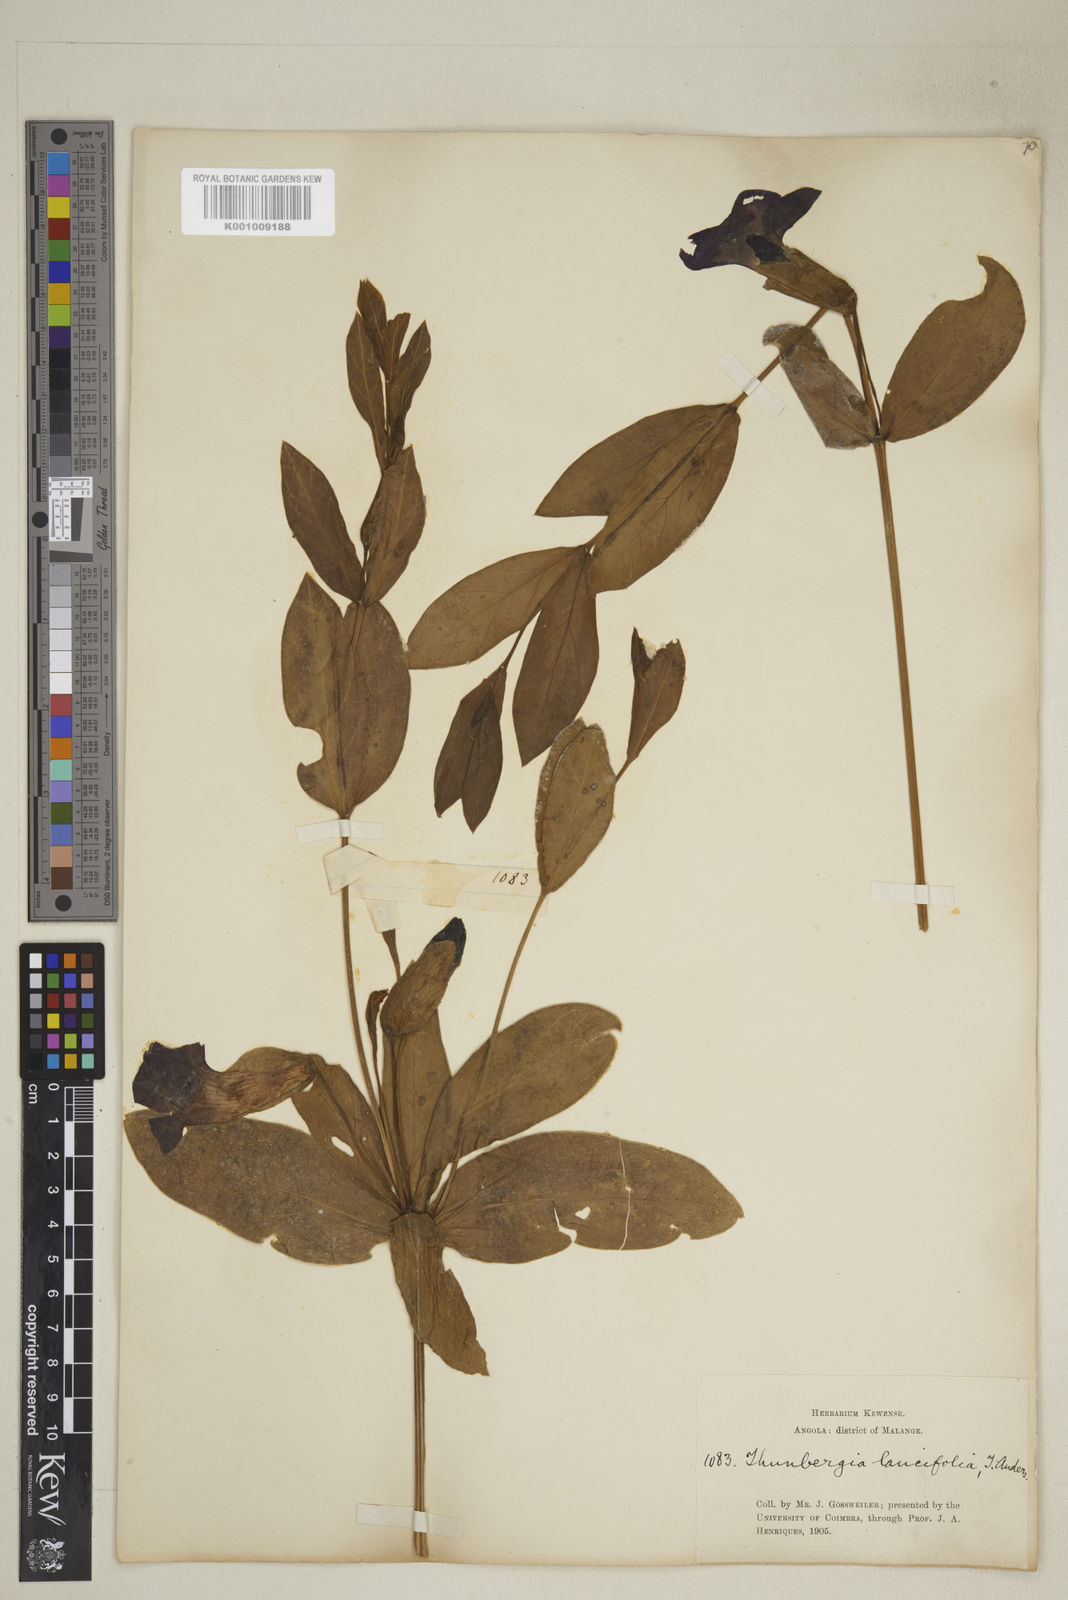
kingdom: Plantae
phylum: Tracheophyta
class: Magnoliopsida
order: Lamiales
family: Acanthaceae
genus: Thunbergia
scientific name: Thunbergia lancifolia
